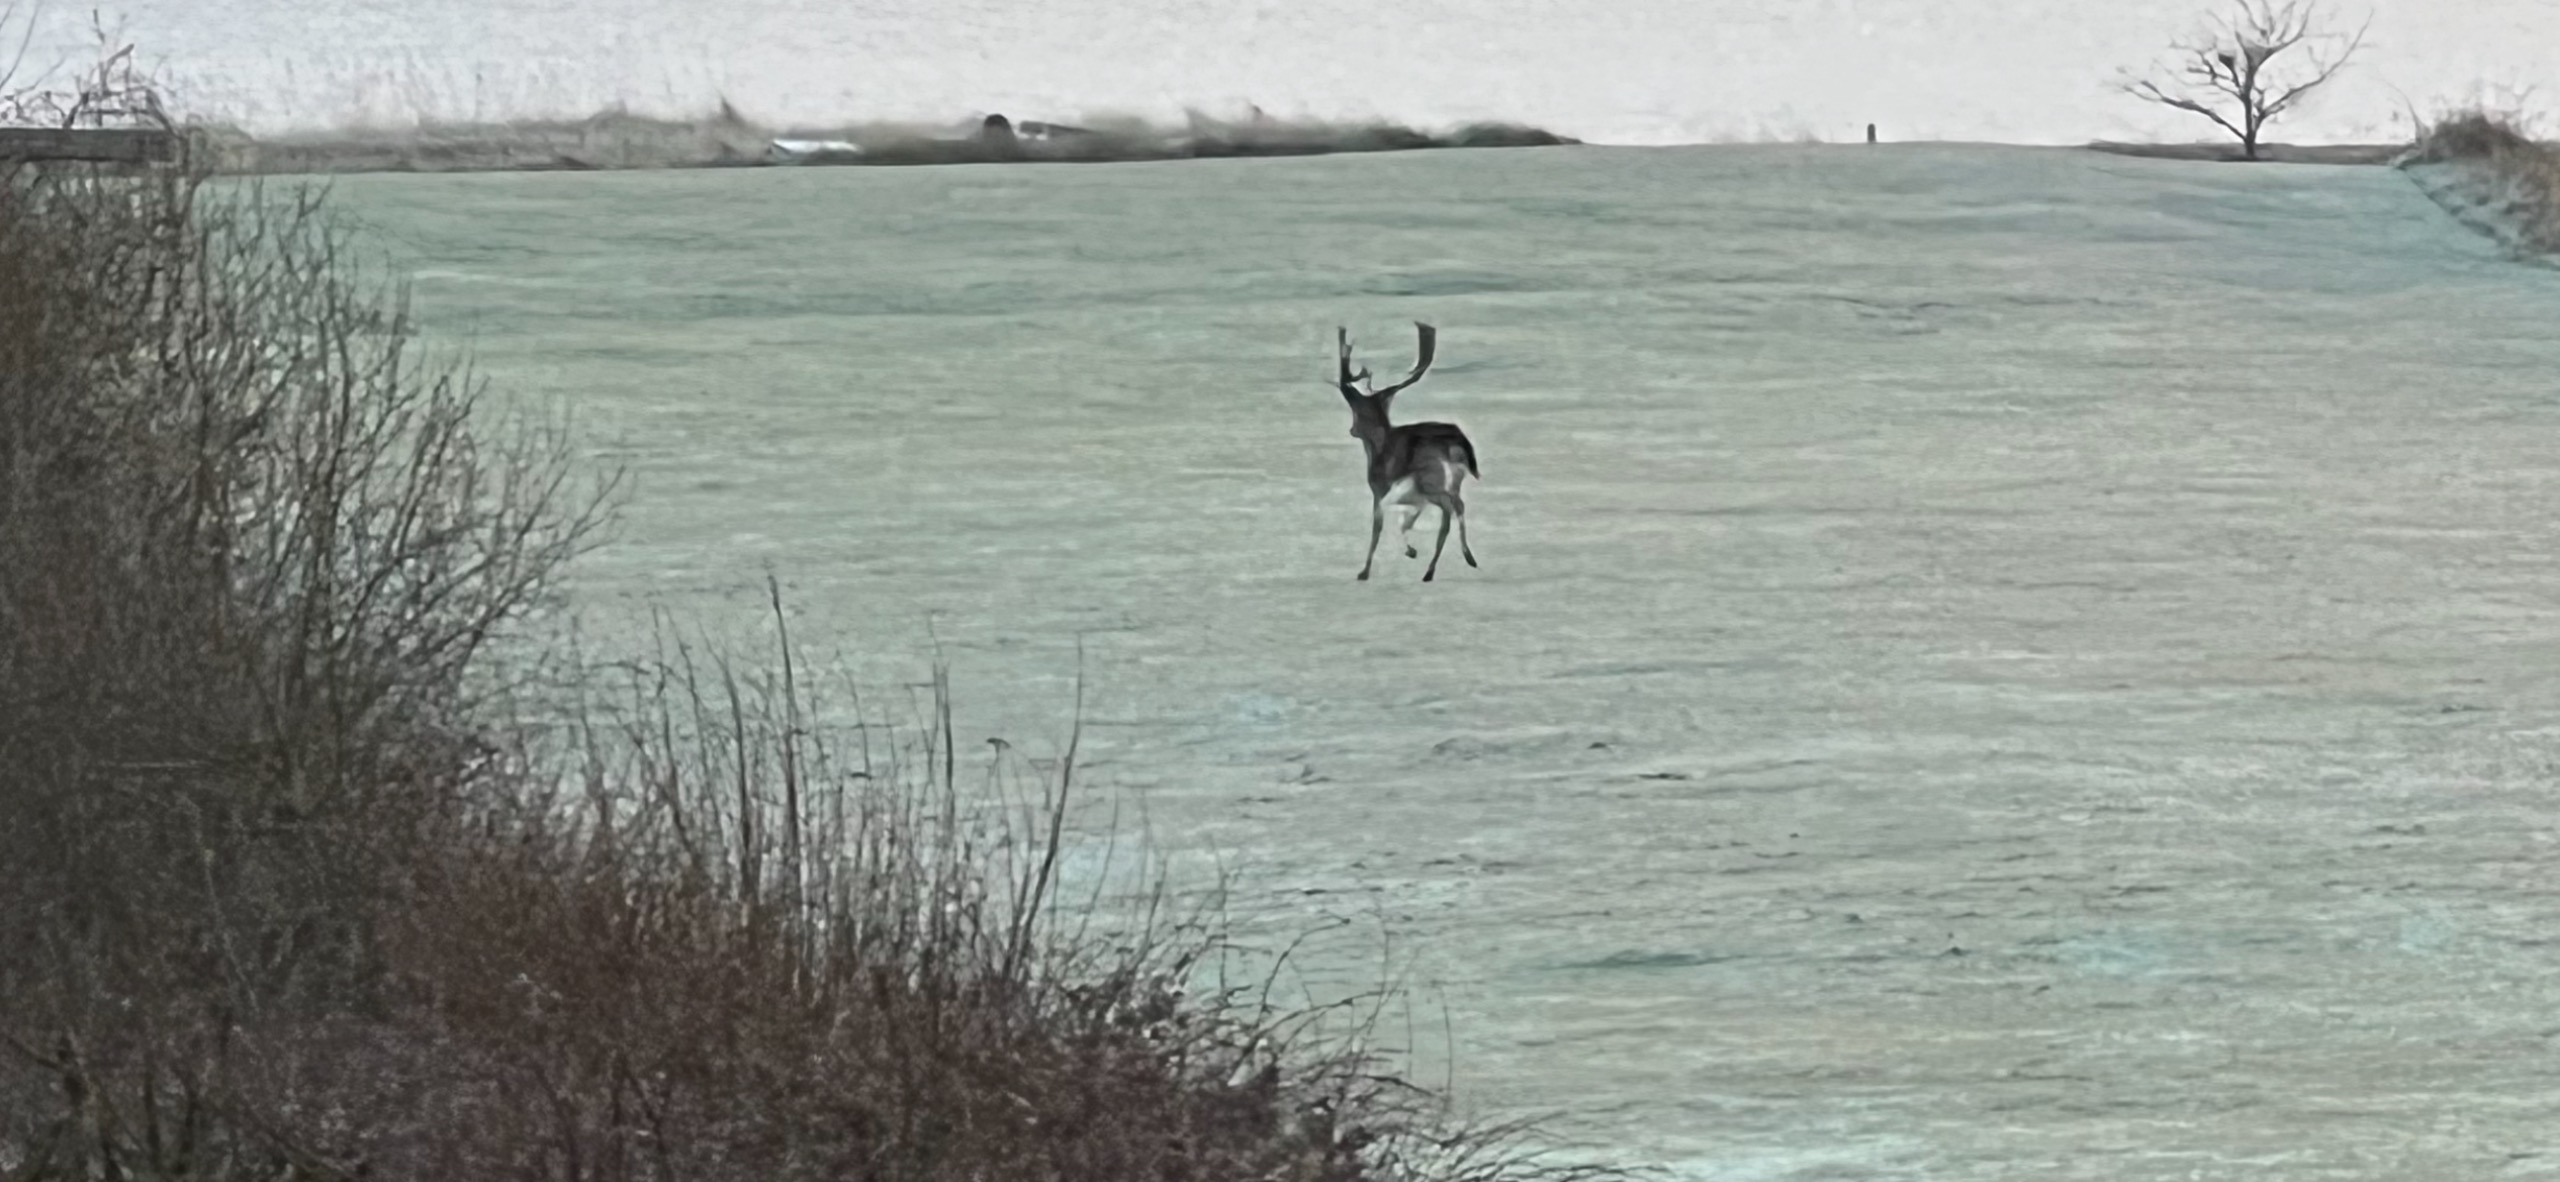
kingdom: Animalia
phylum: Chordata
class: Mammalia
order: Artiodactyla
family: Cervidae
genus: Dama
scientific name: Dama dama
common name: Dådyr
